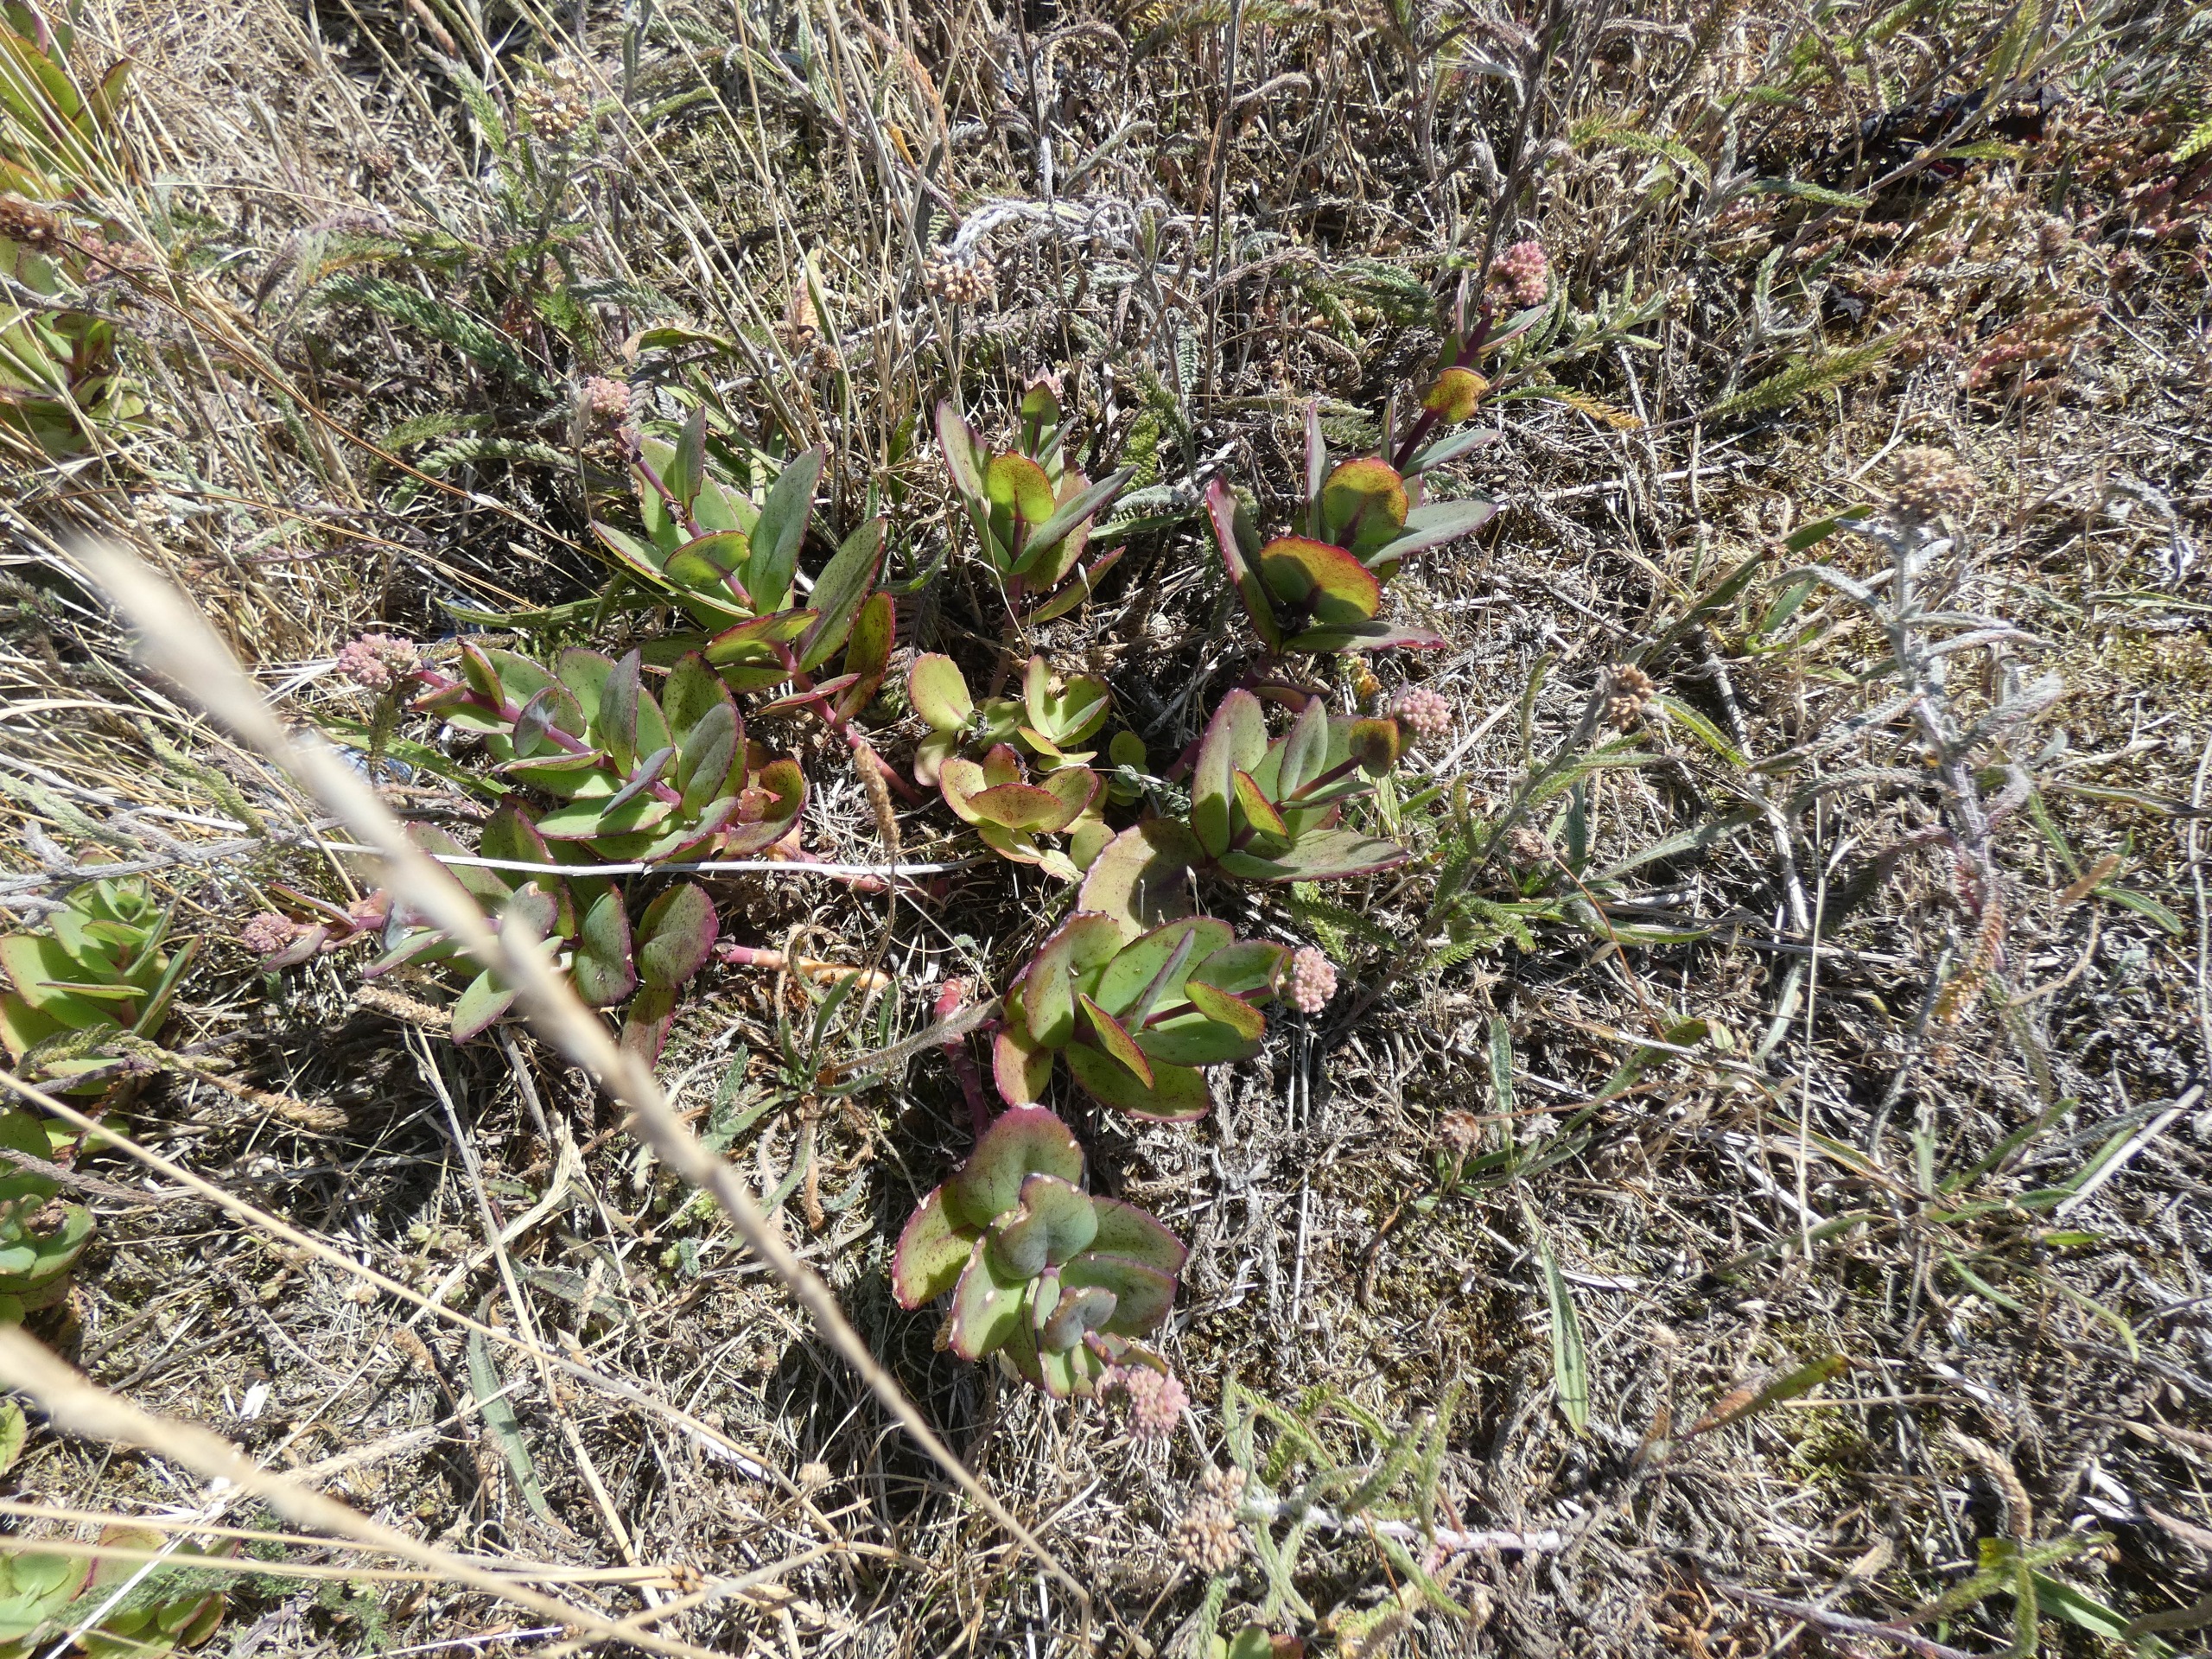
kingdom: Plantae
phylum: Tracheophyta
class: Magnoliopsida
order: Saxifragales
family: Crassulaceae
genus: Hylotelephium
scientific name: Hylotelephium maximum
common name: Almindelig sankthansurt
